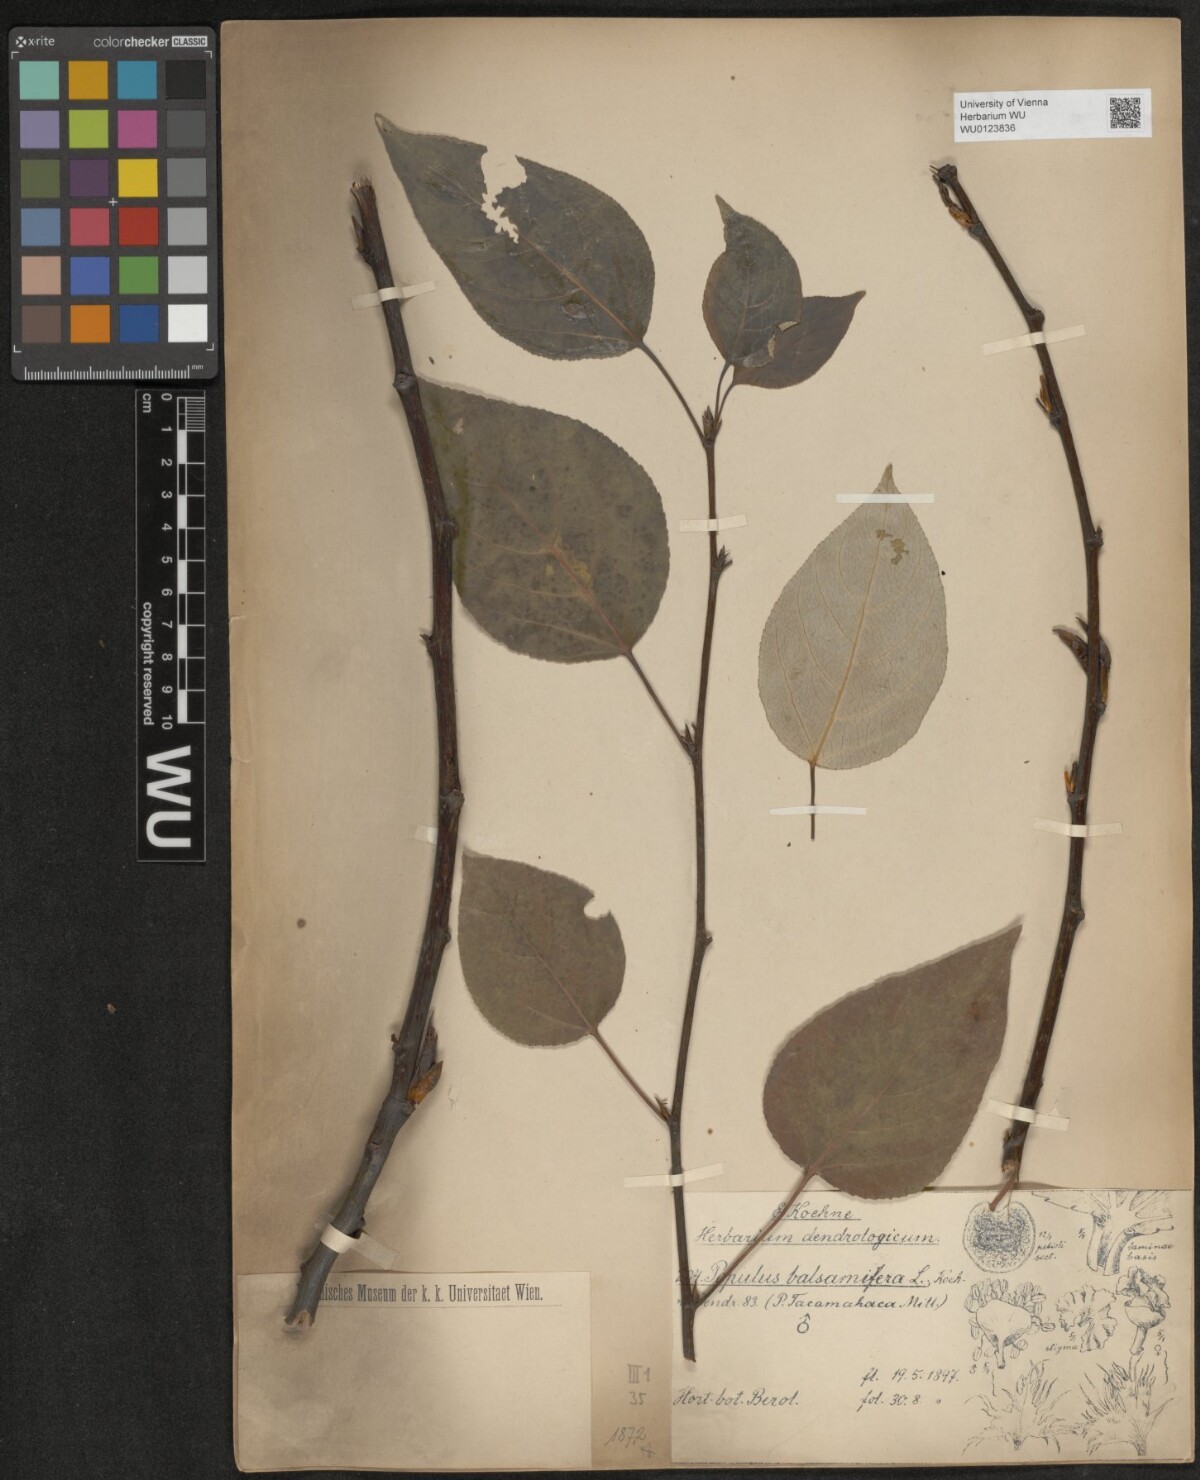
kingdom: Plantae
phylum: Tracheophyta
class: Magnoliopsida
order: Malpighiales
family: Salicaceae
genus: Populus
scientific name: Populus balsamifera
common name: Balsam poplar
